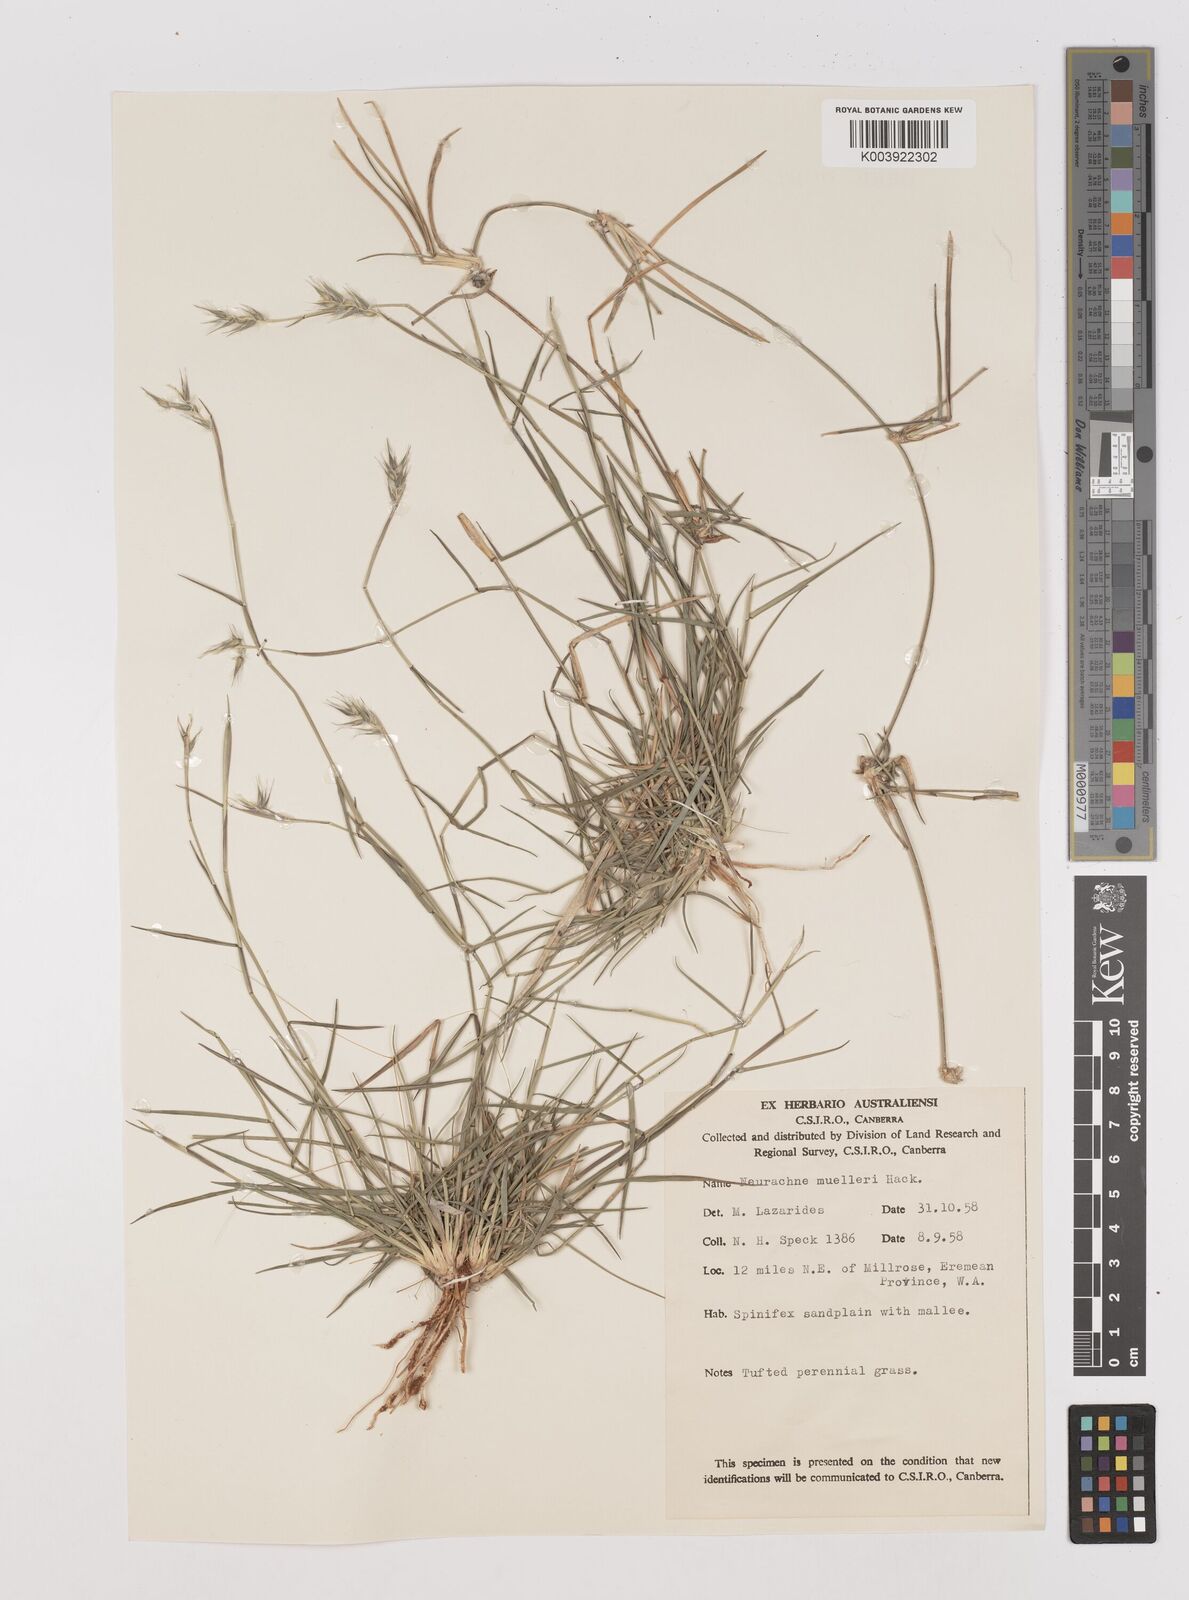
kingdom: Plantae
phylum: Tracheophyta
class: Liliopsida
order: Poales
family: Poaceae
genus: Neurachne
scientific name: Neurachne muelleri
